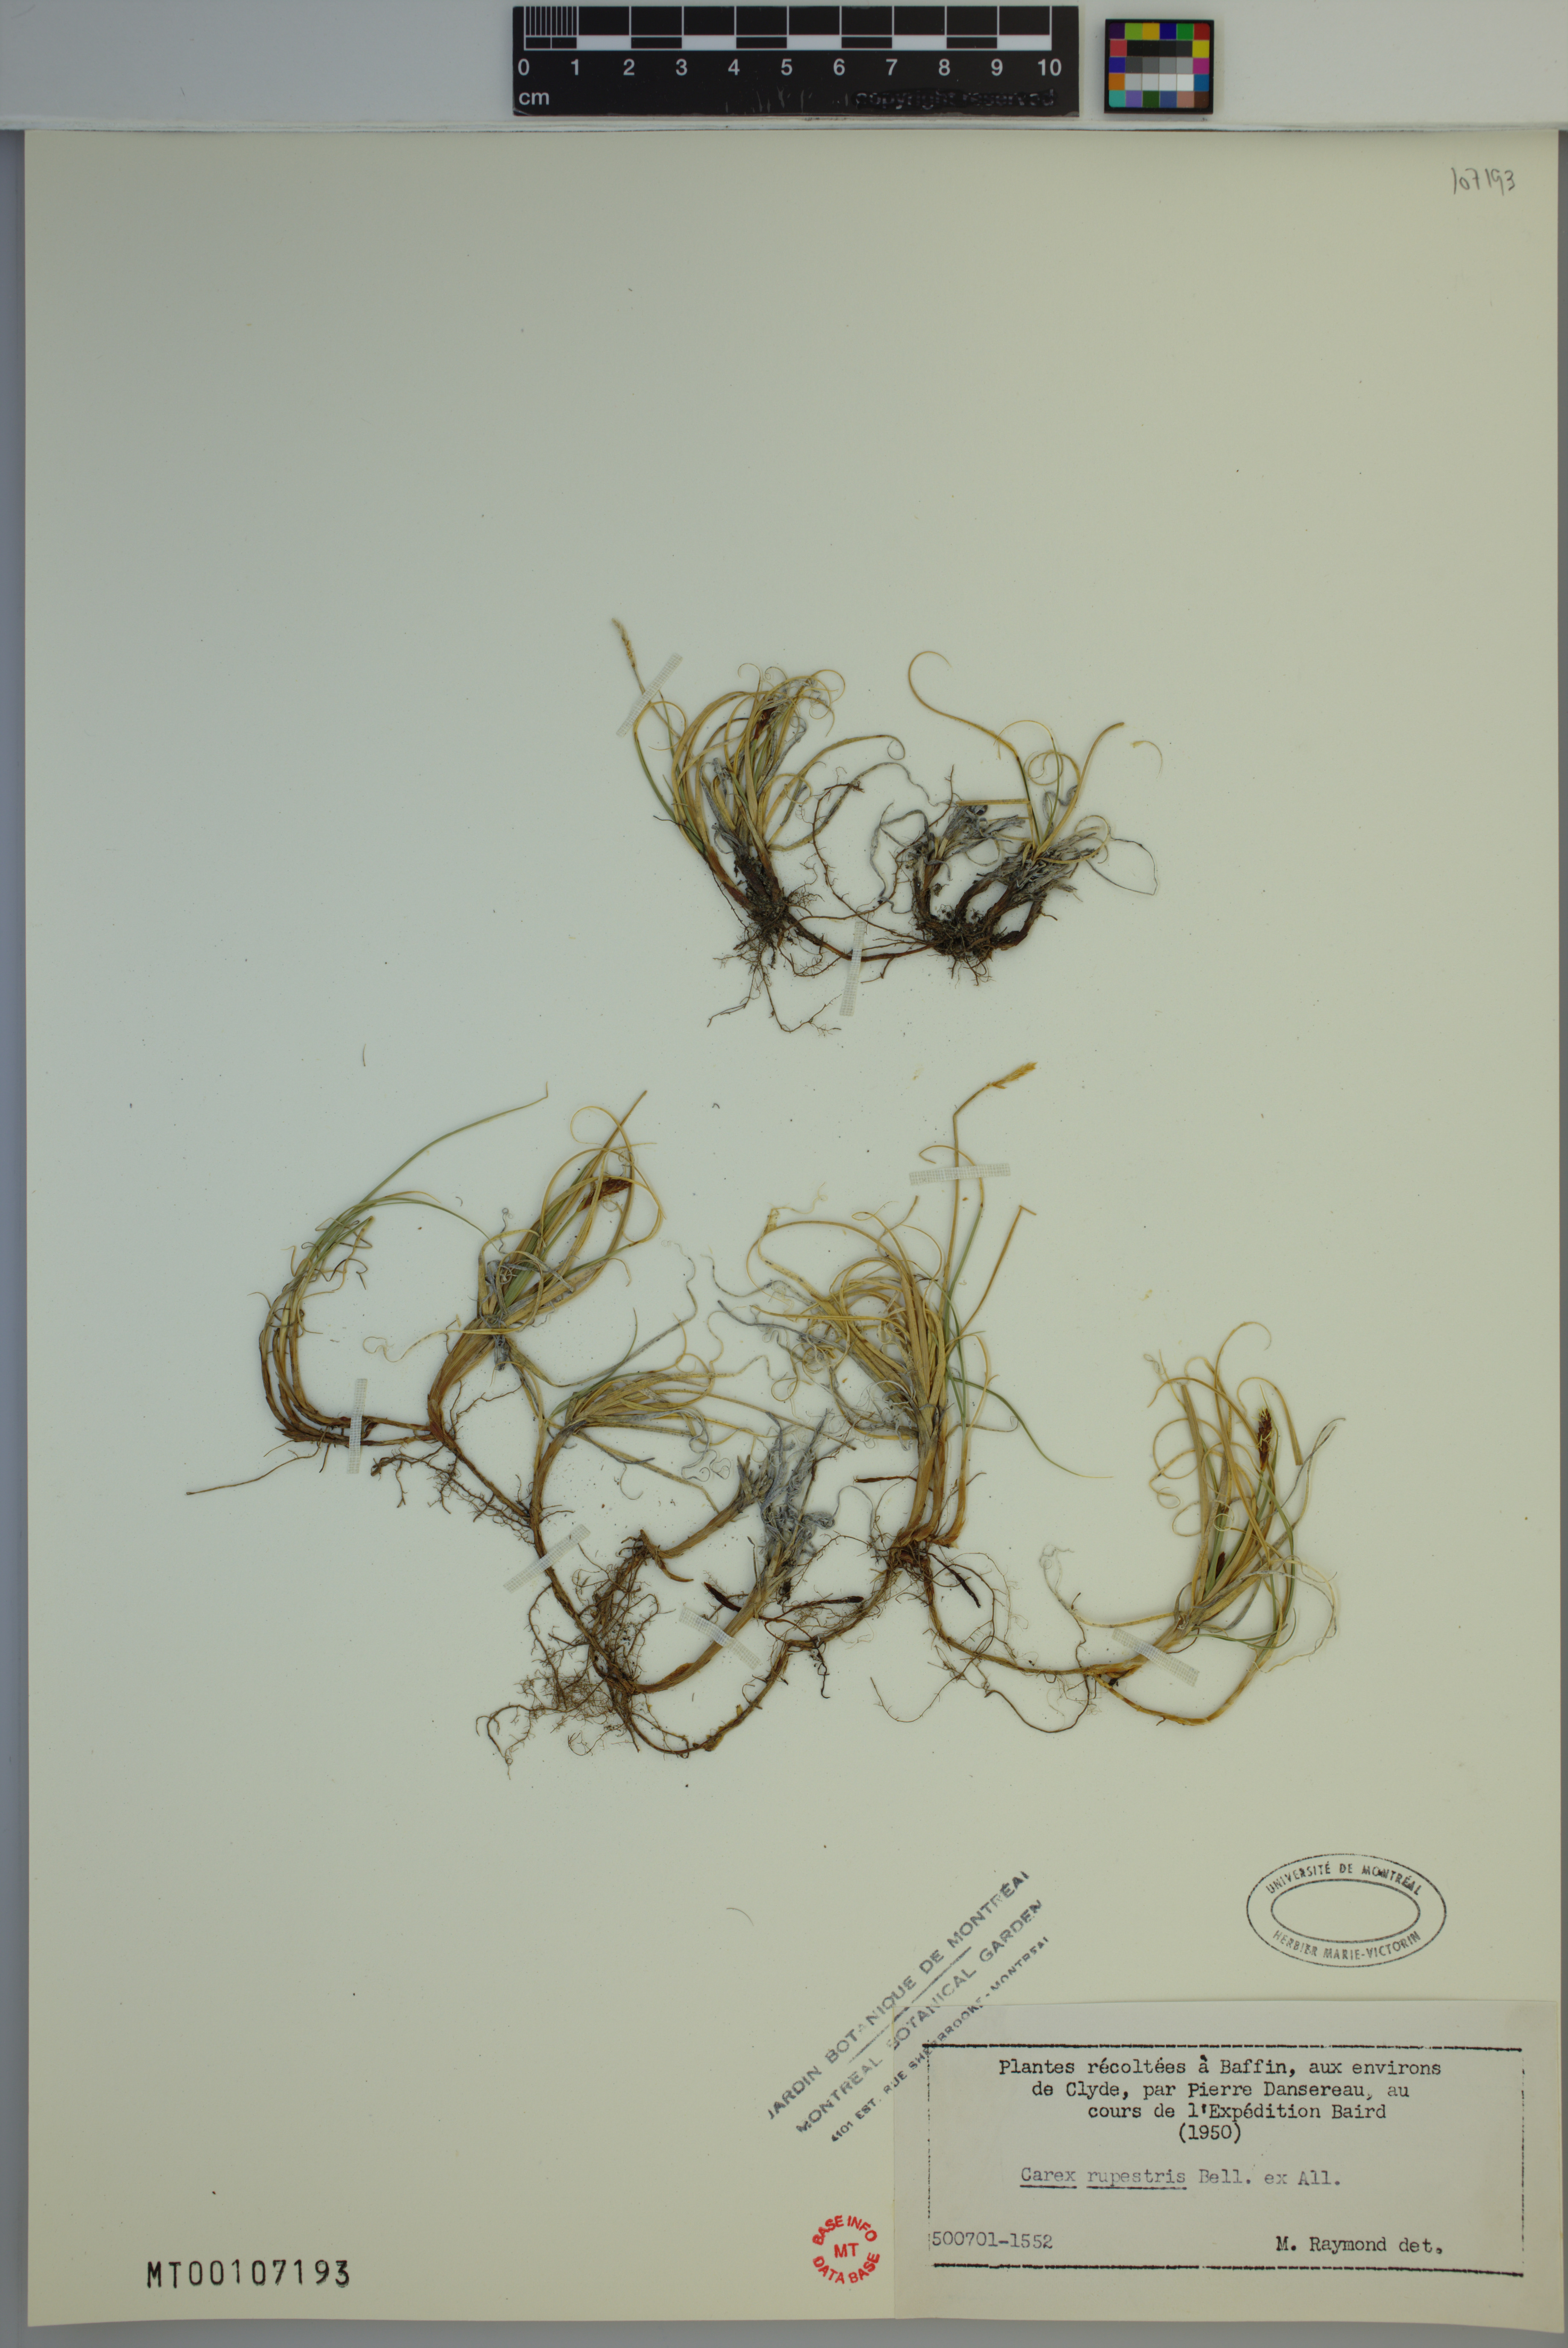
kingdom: Plantae
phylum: Tracheophyta
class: Liliopsida
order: Poales
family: Cyperaceae
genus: Carex
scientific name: Carex rupestris
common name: Rock sedge
